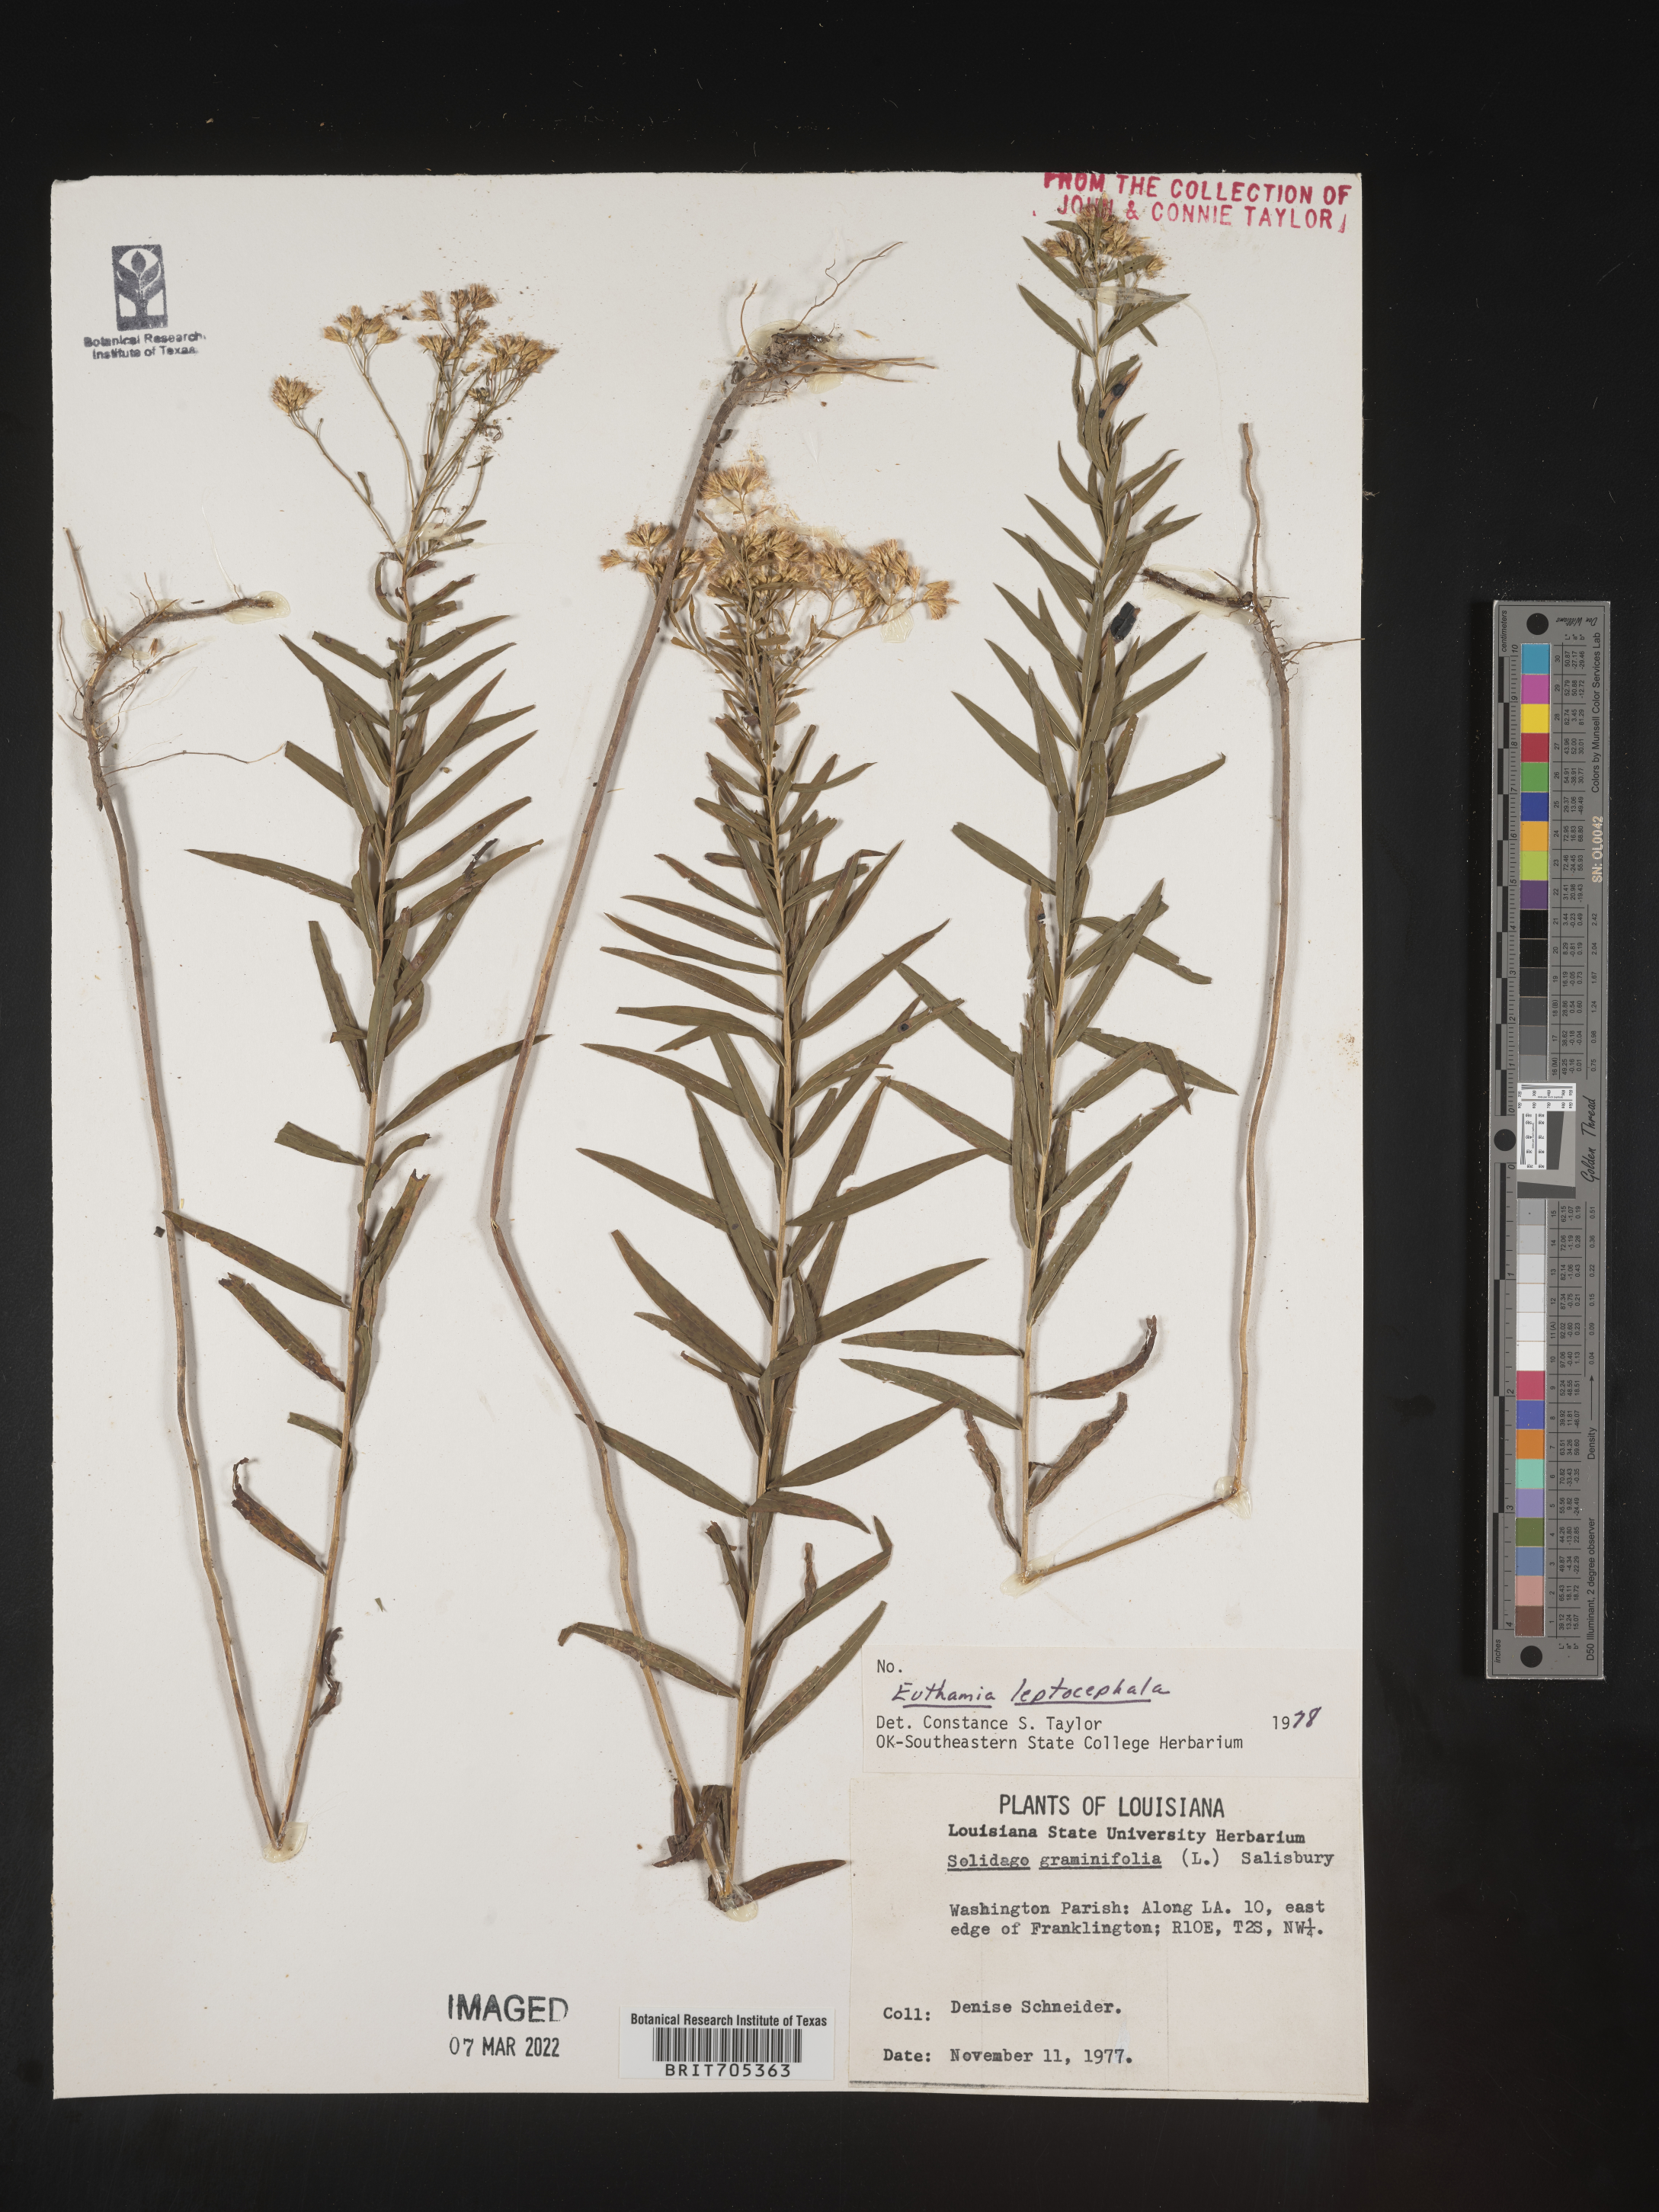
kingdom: Plantae
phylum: Tracheophyta
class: Magnoliopsida
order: Asterales
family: Asteraceae
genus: Euthamia
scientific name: Euthamia leptocephala
